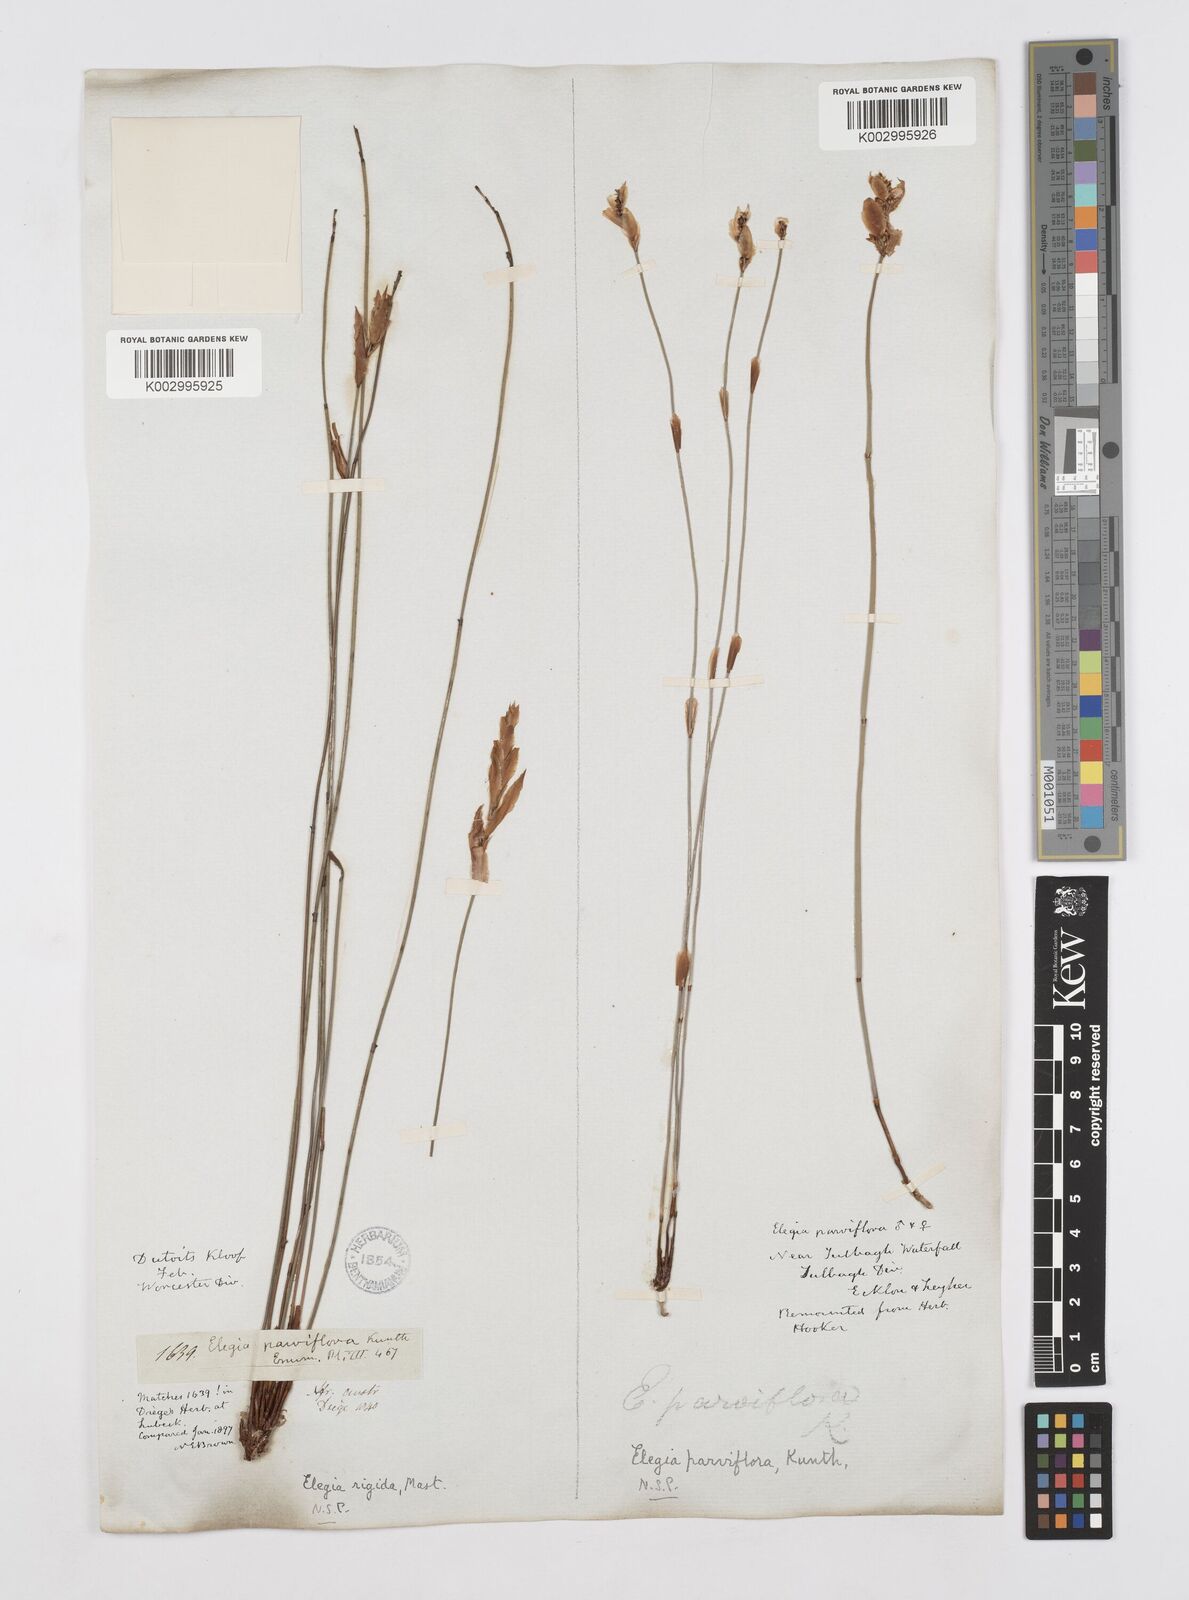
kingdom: Plantae
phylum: Tracheophyta
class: Liliopsida
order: Poales
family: Restionaceae
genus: Cannomois
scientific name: Cannomois parviflora
